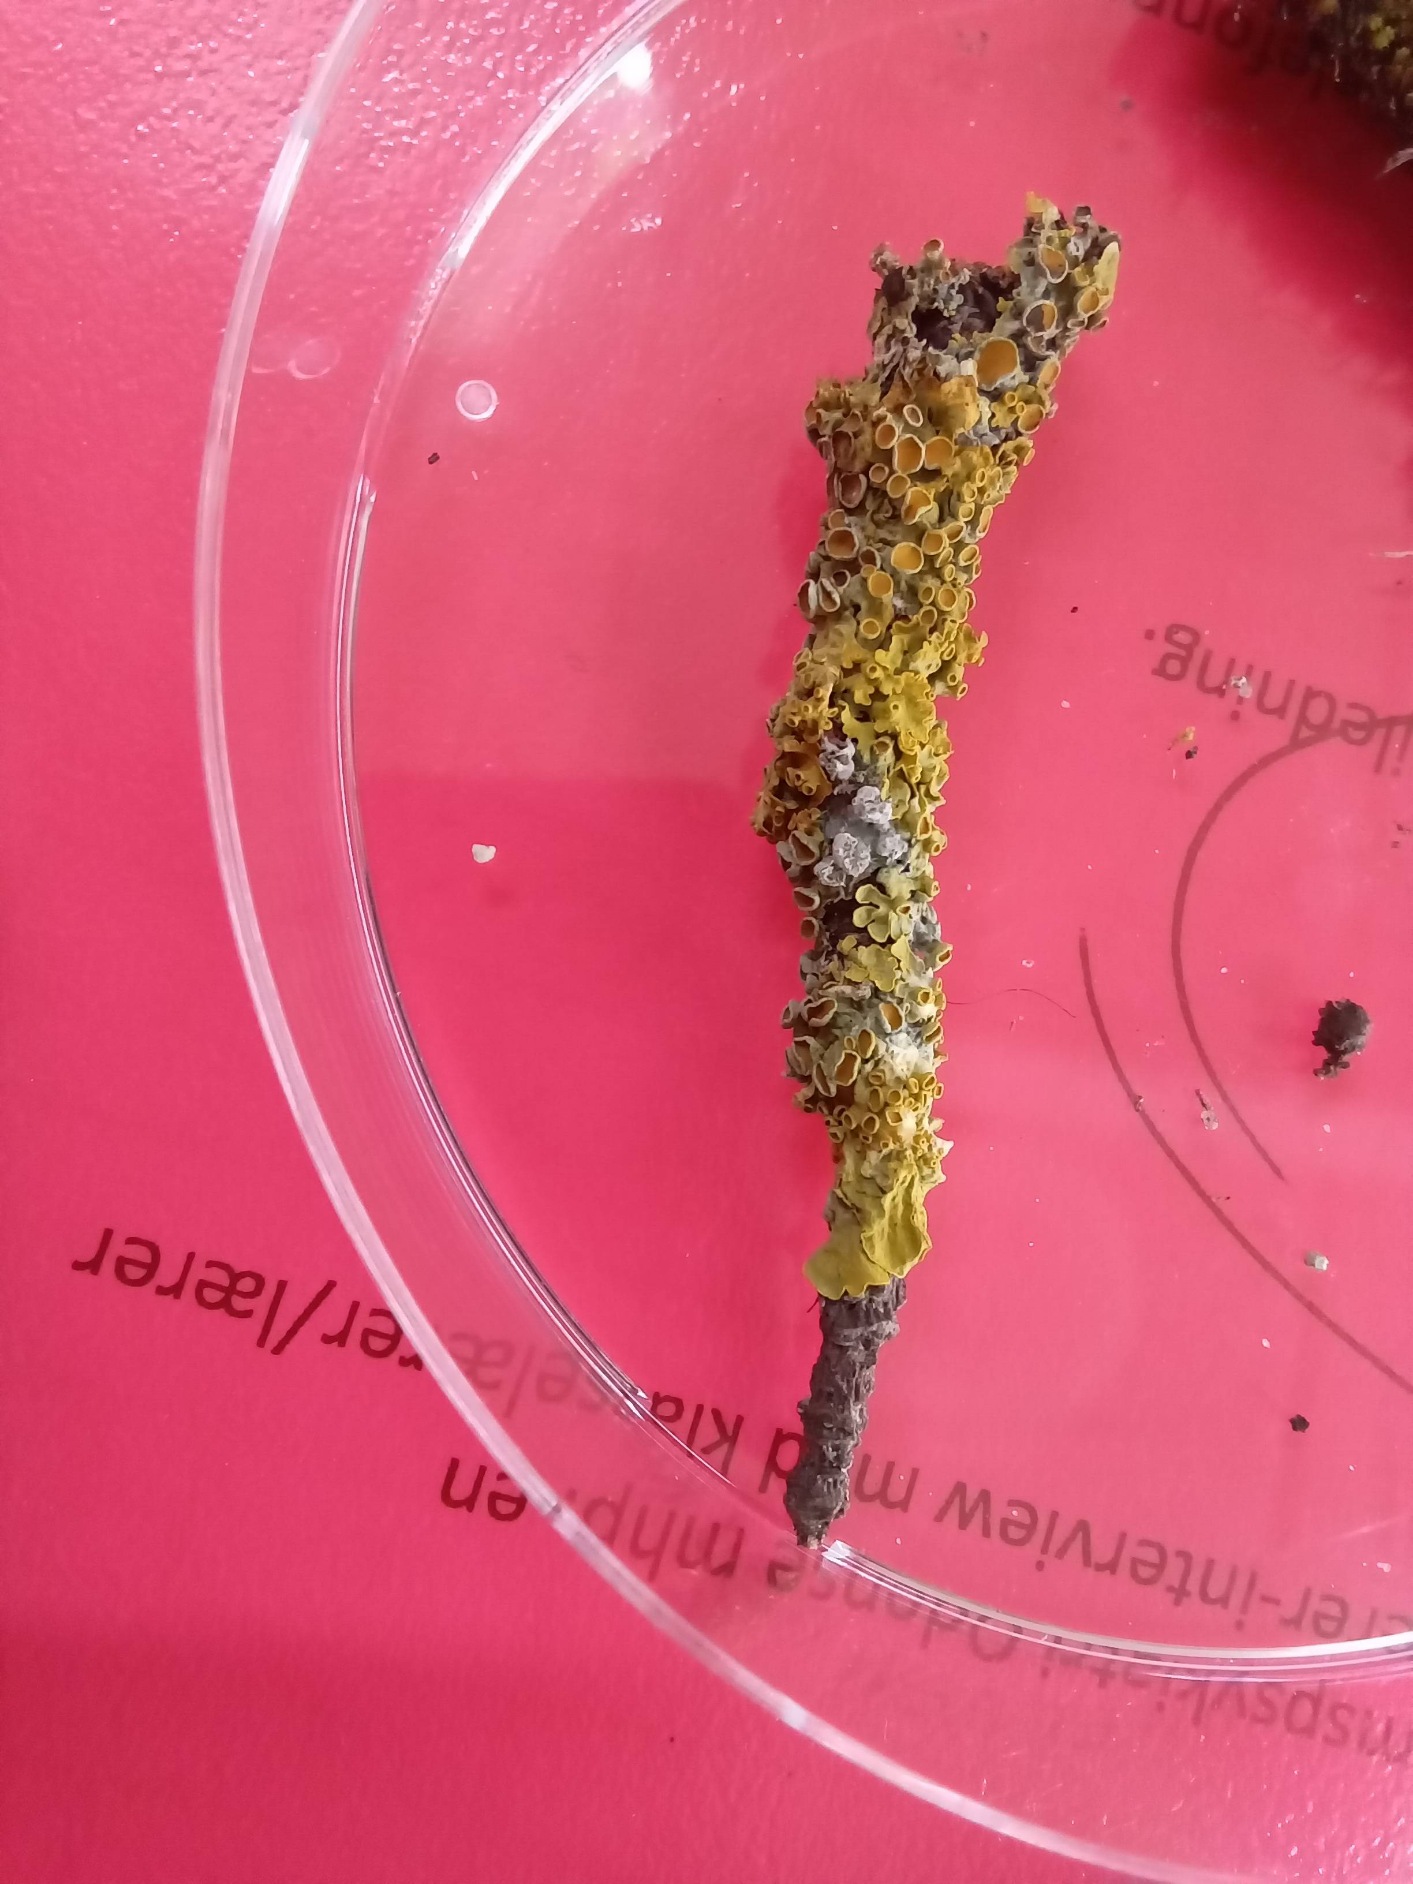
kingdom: Fungi
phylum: Ascomycota
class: Lecanoromycetes
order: Teloschistales
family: Teloschistaceae
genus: Xanthoria
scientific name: Xanthoria parietina
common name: Almindelig væggelav
